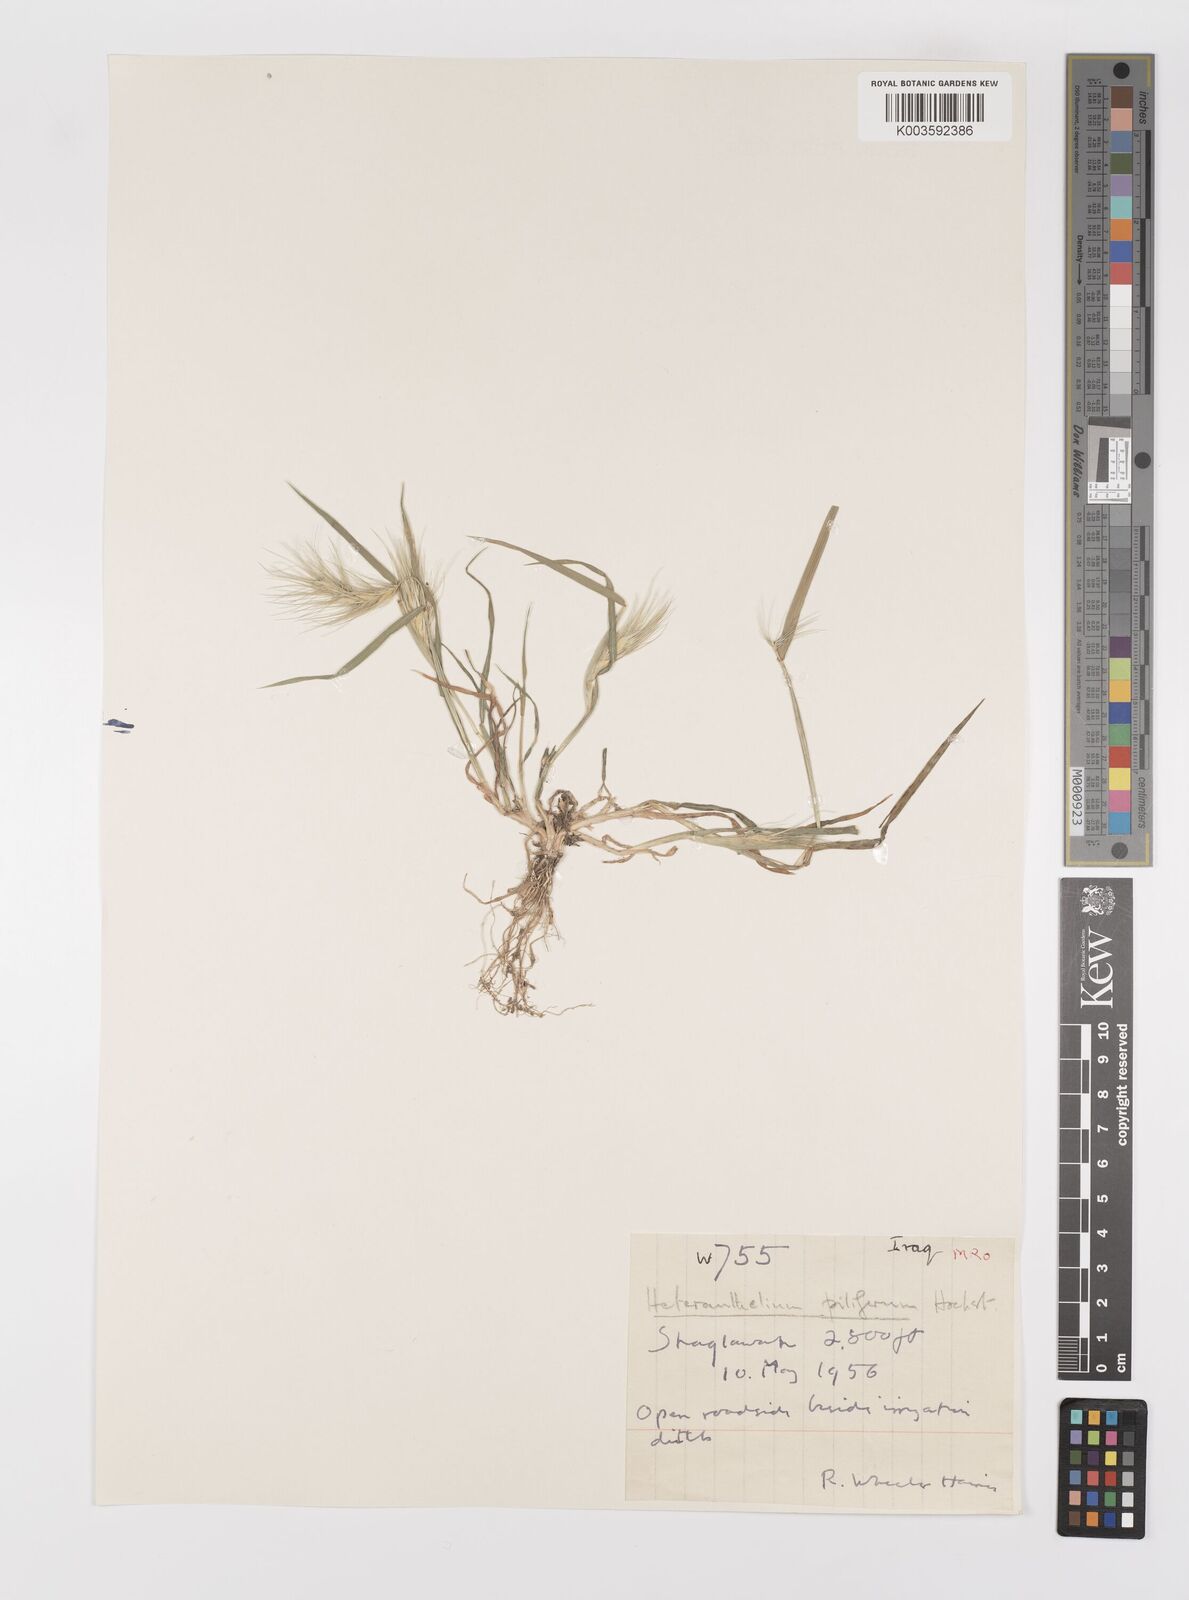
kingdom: Plantae
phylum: Tracheophyta
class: Liliopsida
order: Poales
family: Poaceae
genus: Heteranthelium
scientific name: Heteranthelium piliferum
